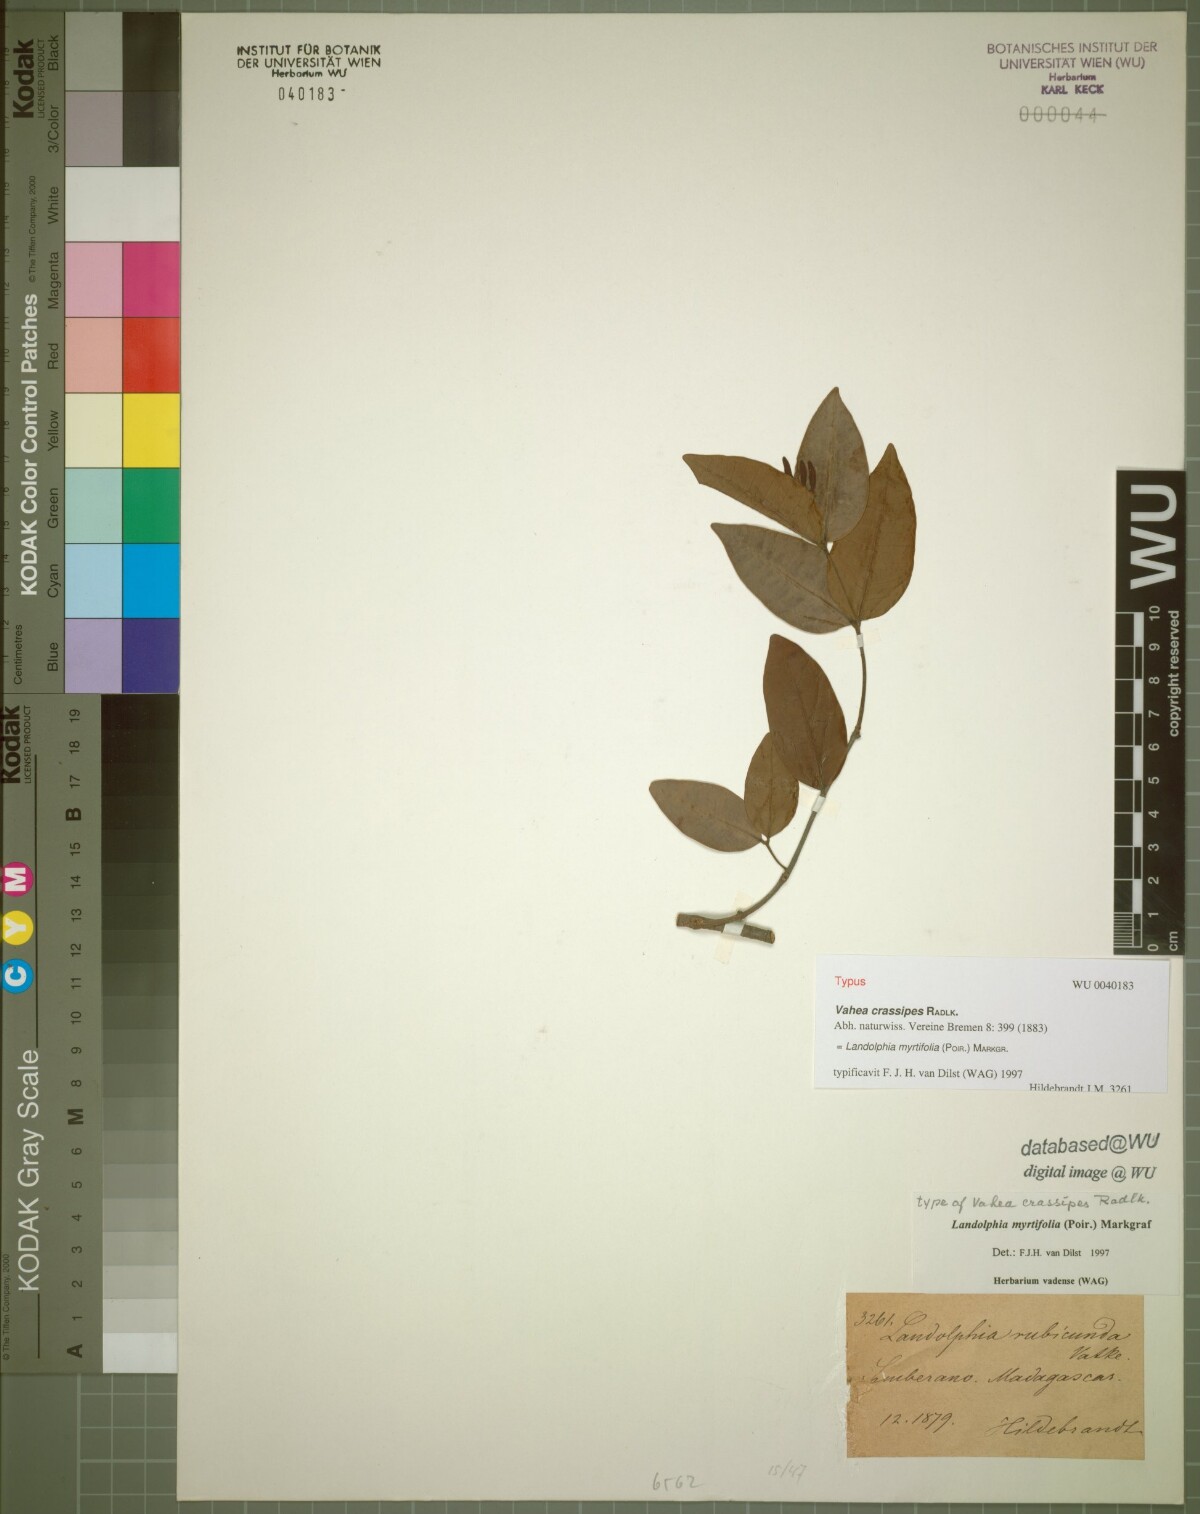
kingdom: Plantae
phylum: Tracheophyta
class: Magnoliopsida
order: Gentianales
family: Apocynaceae
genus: Landolphia
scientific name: Landolphia myrtifolia
